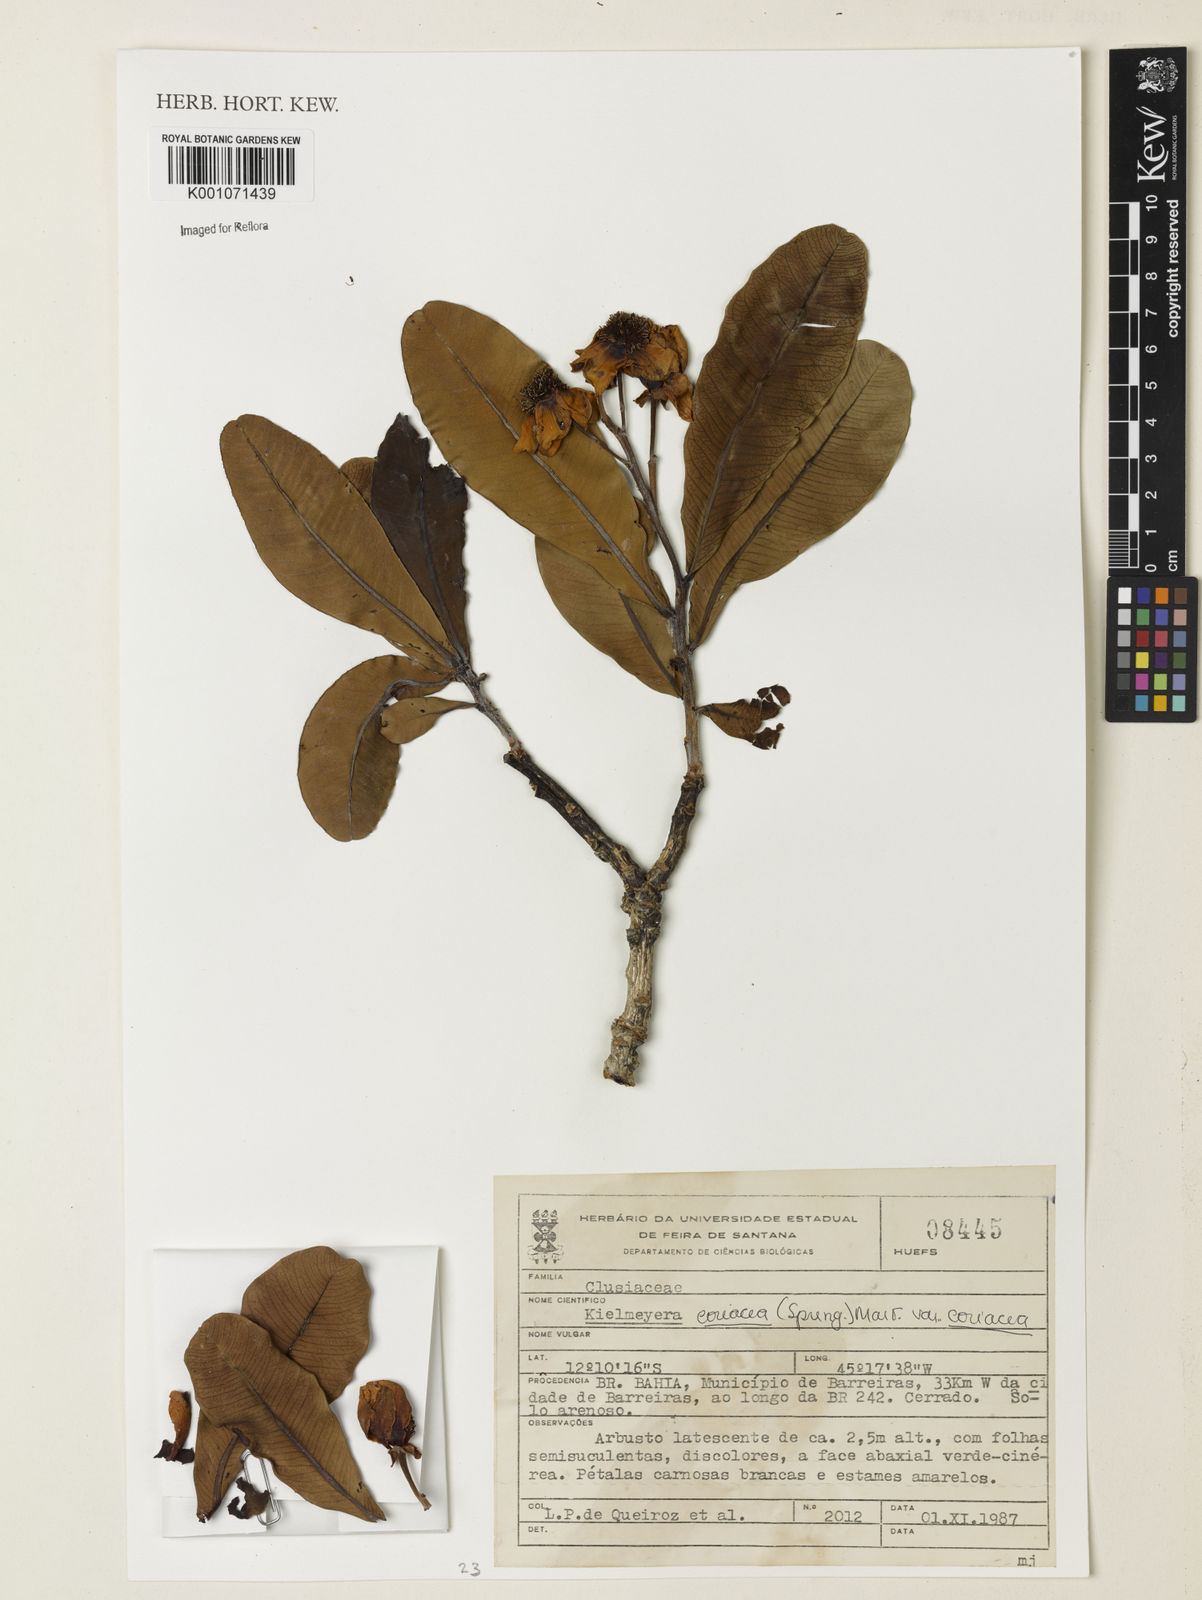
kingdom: Plantae
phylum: Tracheophyta
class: Magnoliopsida
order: Malpighiales
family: Calophyllaceae
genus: Kielmeyera
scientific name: Kielmeyera coriacea
